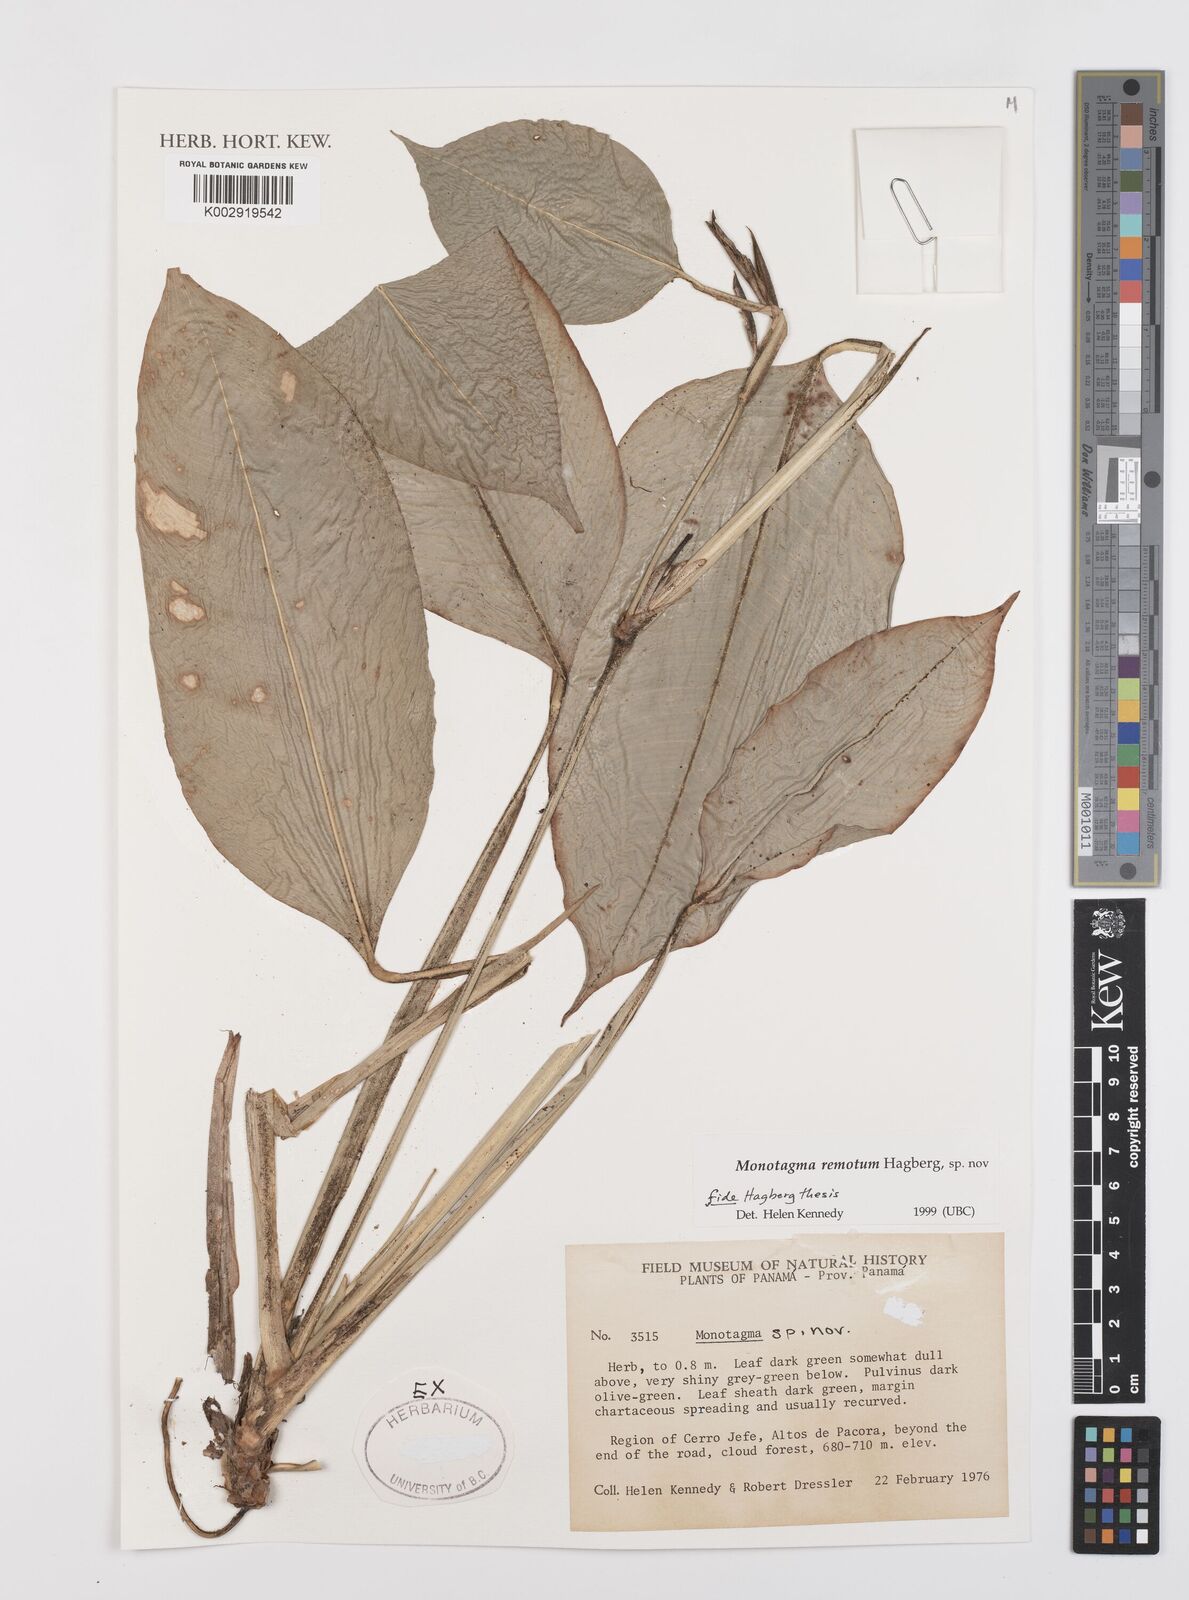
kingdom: Plantae
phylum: Tracheophyta
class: Liliopsida
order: Zingiberales
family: Marantaceae
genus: Monotagma
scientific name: Monotagma remotum
